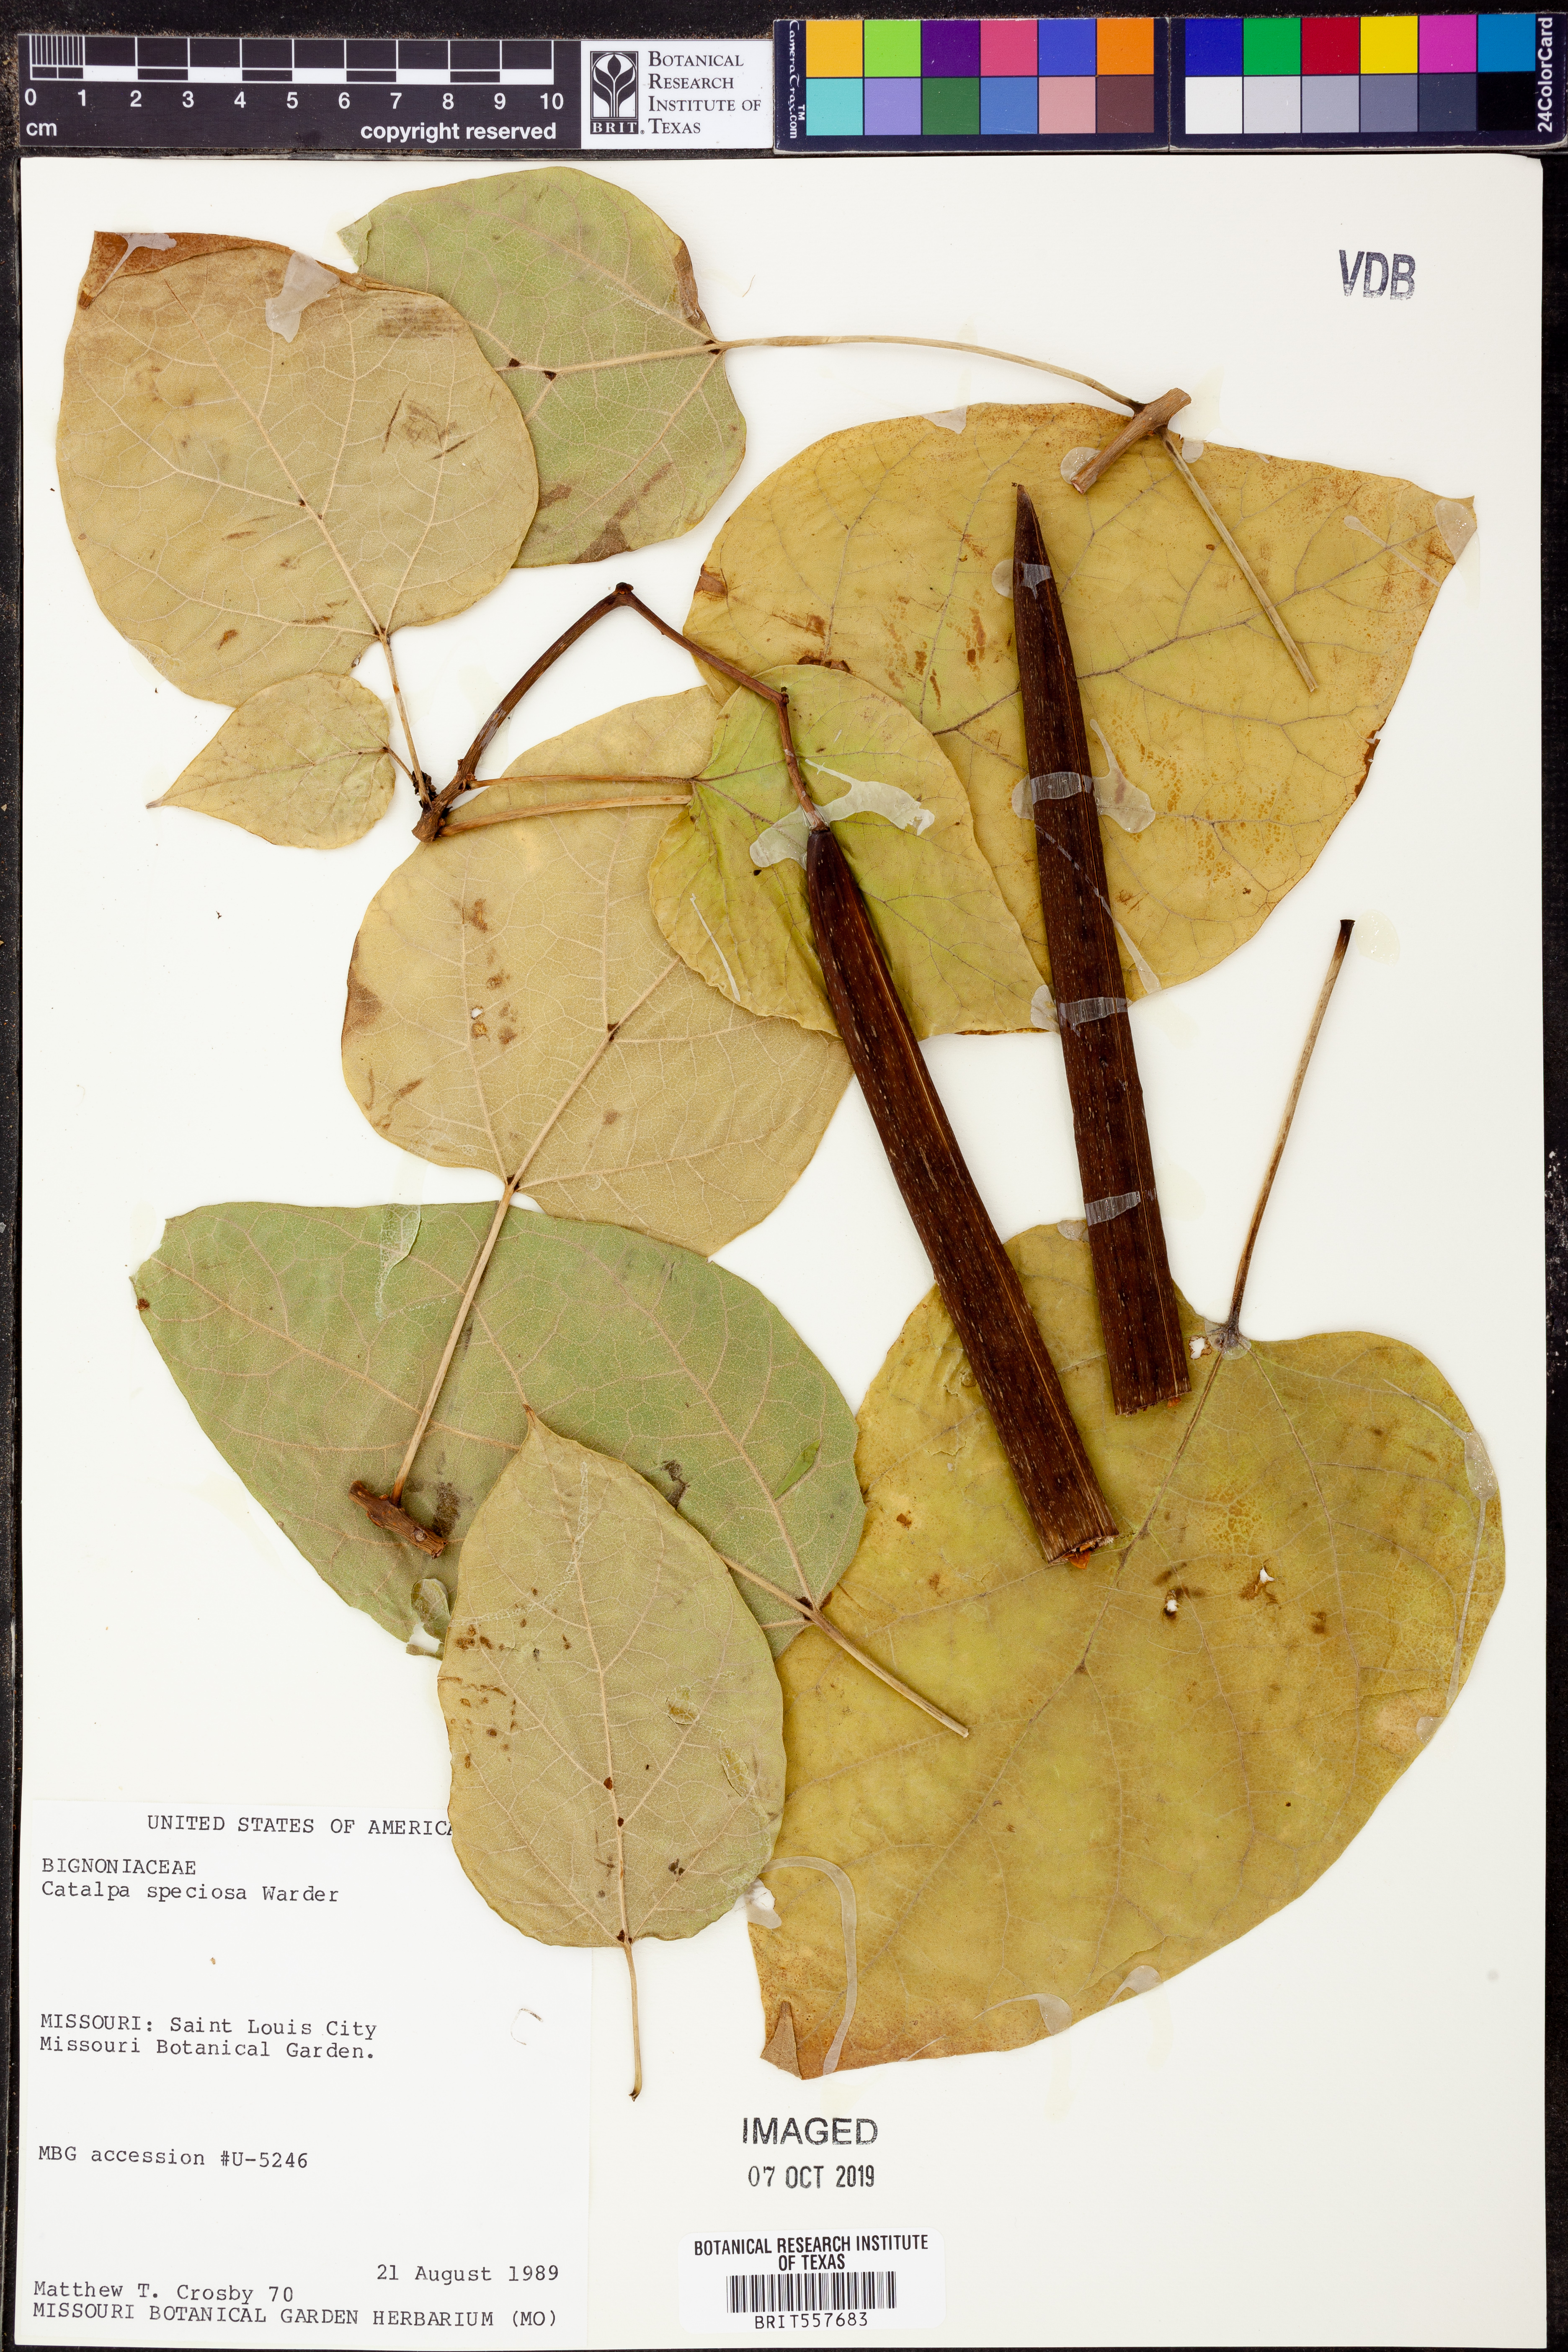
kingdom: Plantae
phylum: Tracheophyta
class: Magnoliopsida
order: Lamiales
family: Bignoniaceae
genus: Catalpa
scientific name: Catalpa speciosa
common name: Northern catalpa
